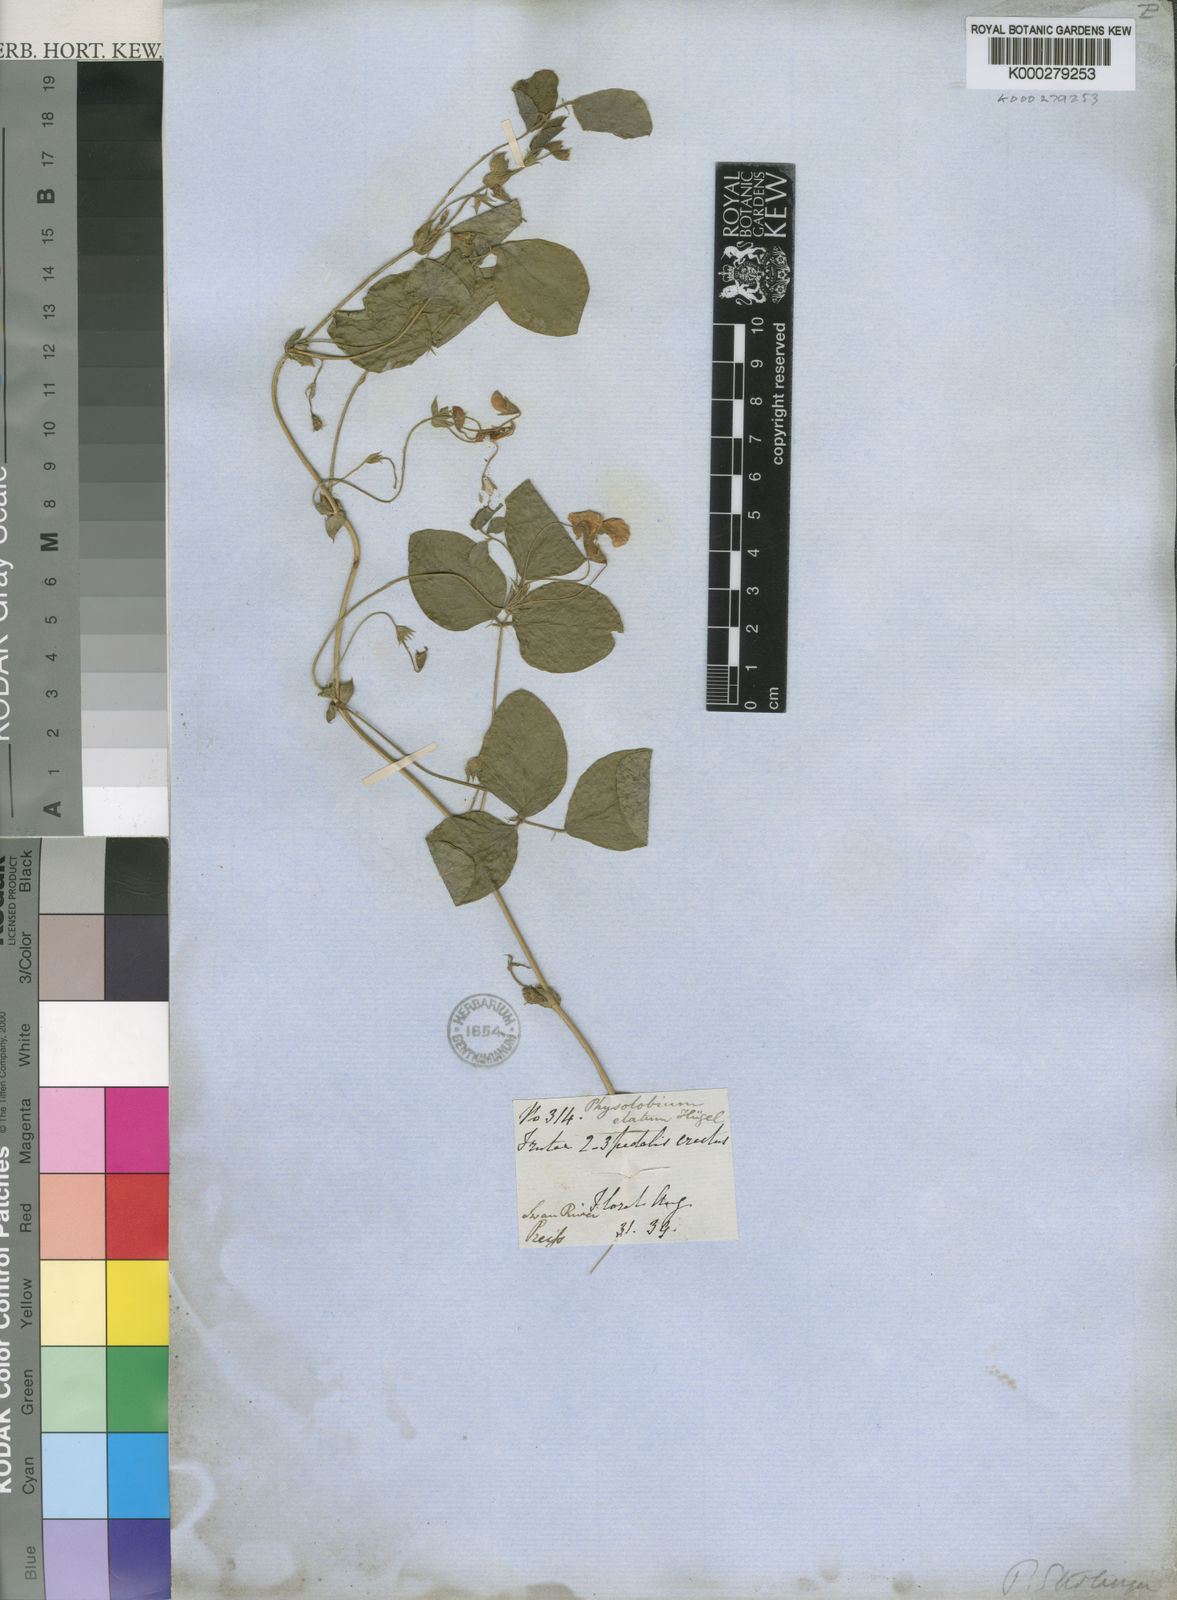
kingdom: Plantae
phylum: Tracheophyta
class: Magnoliopsida
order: Fabales
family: Fabaceae
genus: Kennedia
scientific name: Kennedia
